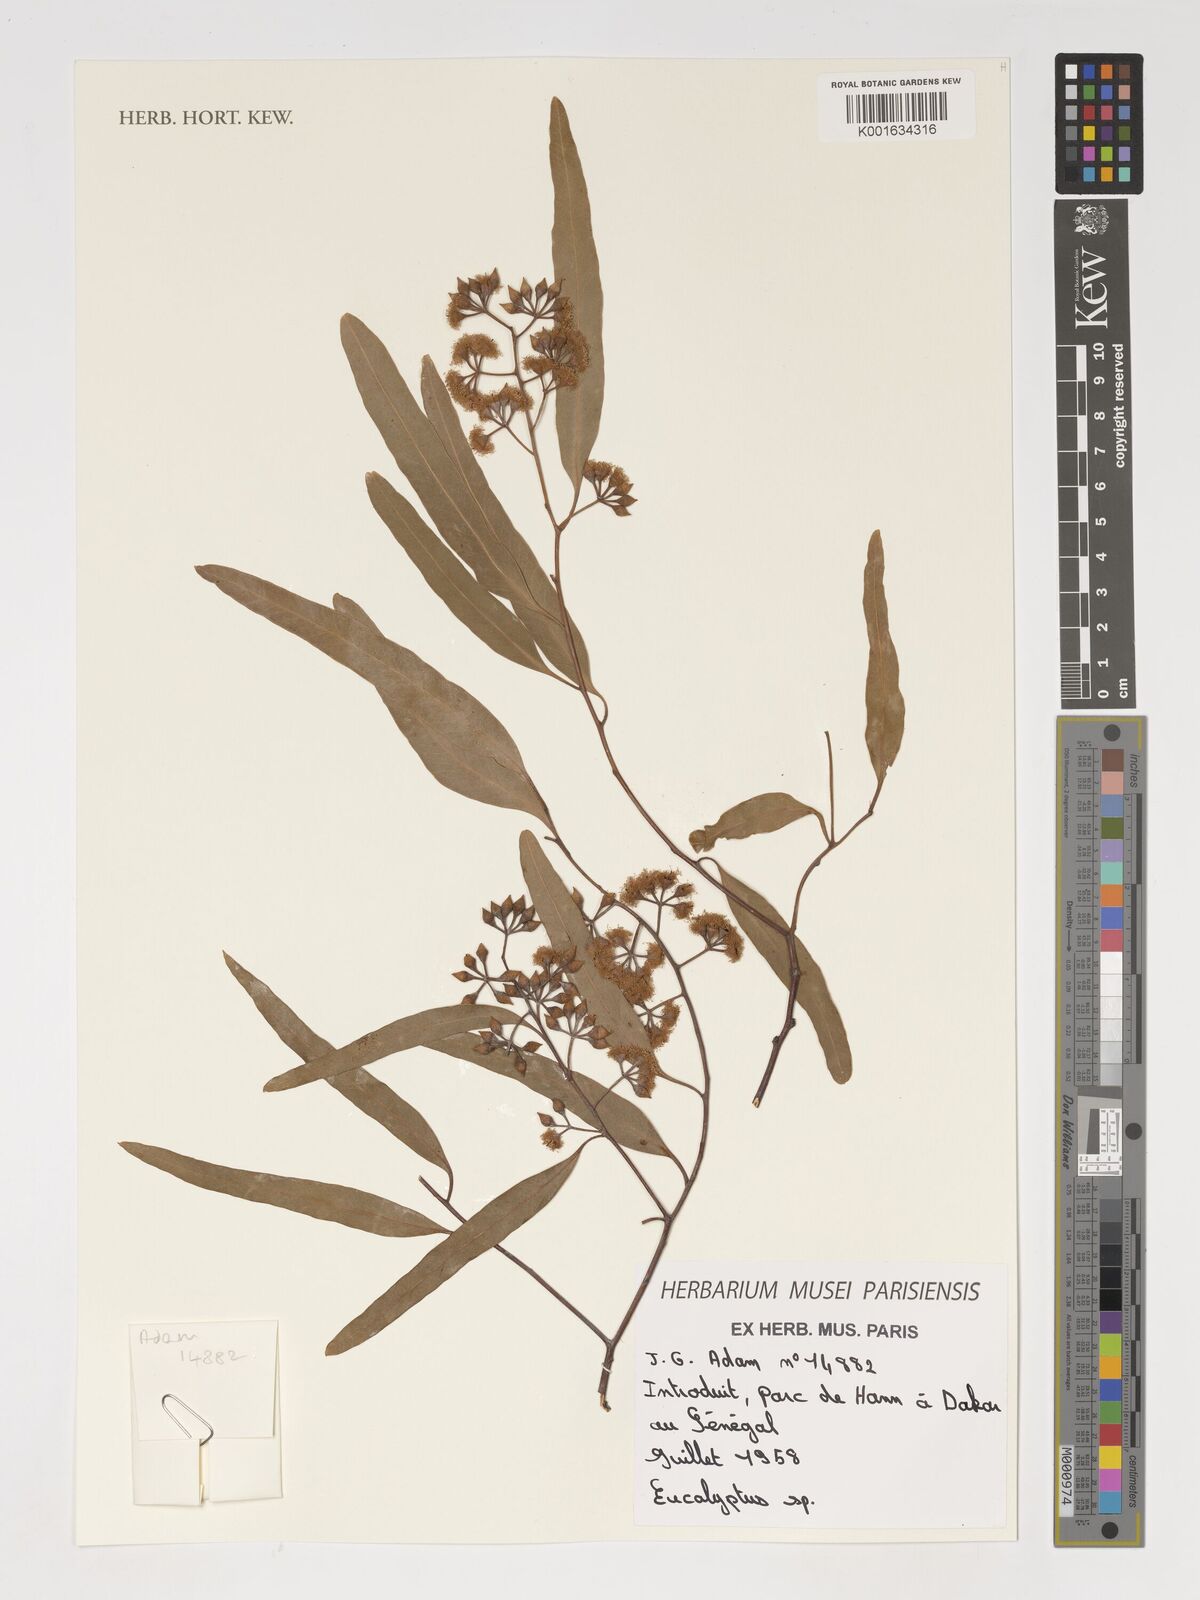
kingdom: Plantae
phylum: Tracheophyta
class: Magnoliopsida
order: Myrtales
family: Myrtaceae
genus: Eucalyptus
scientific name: Eucalyptus
